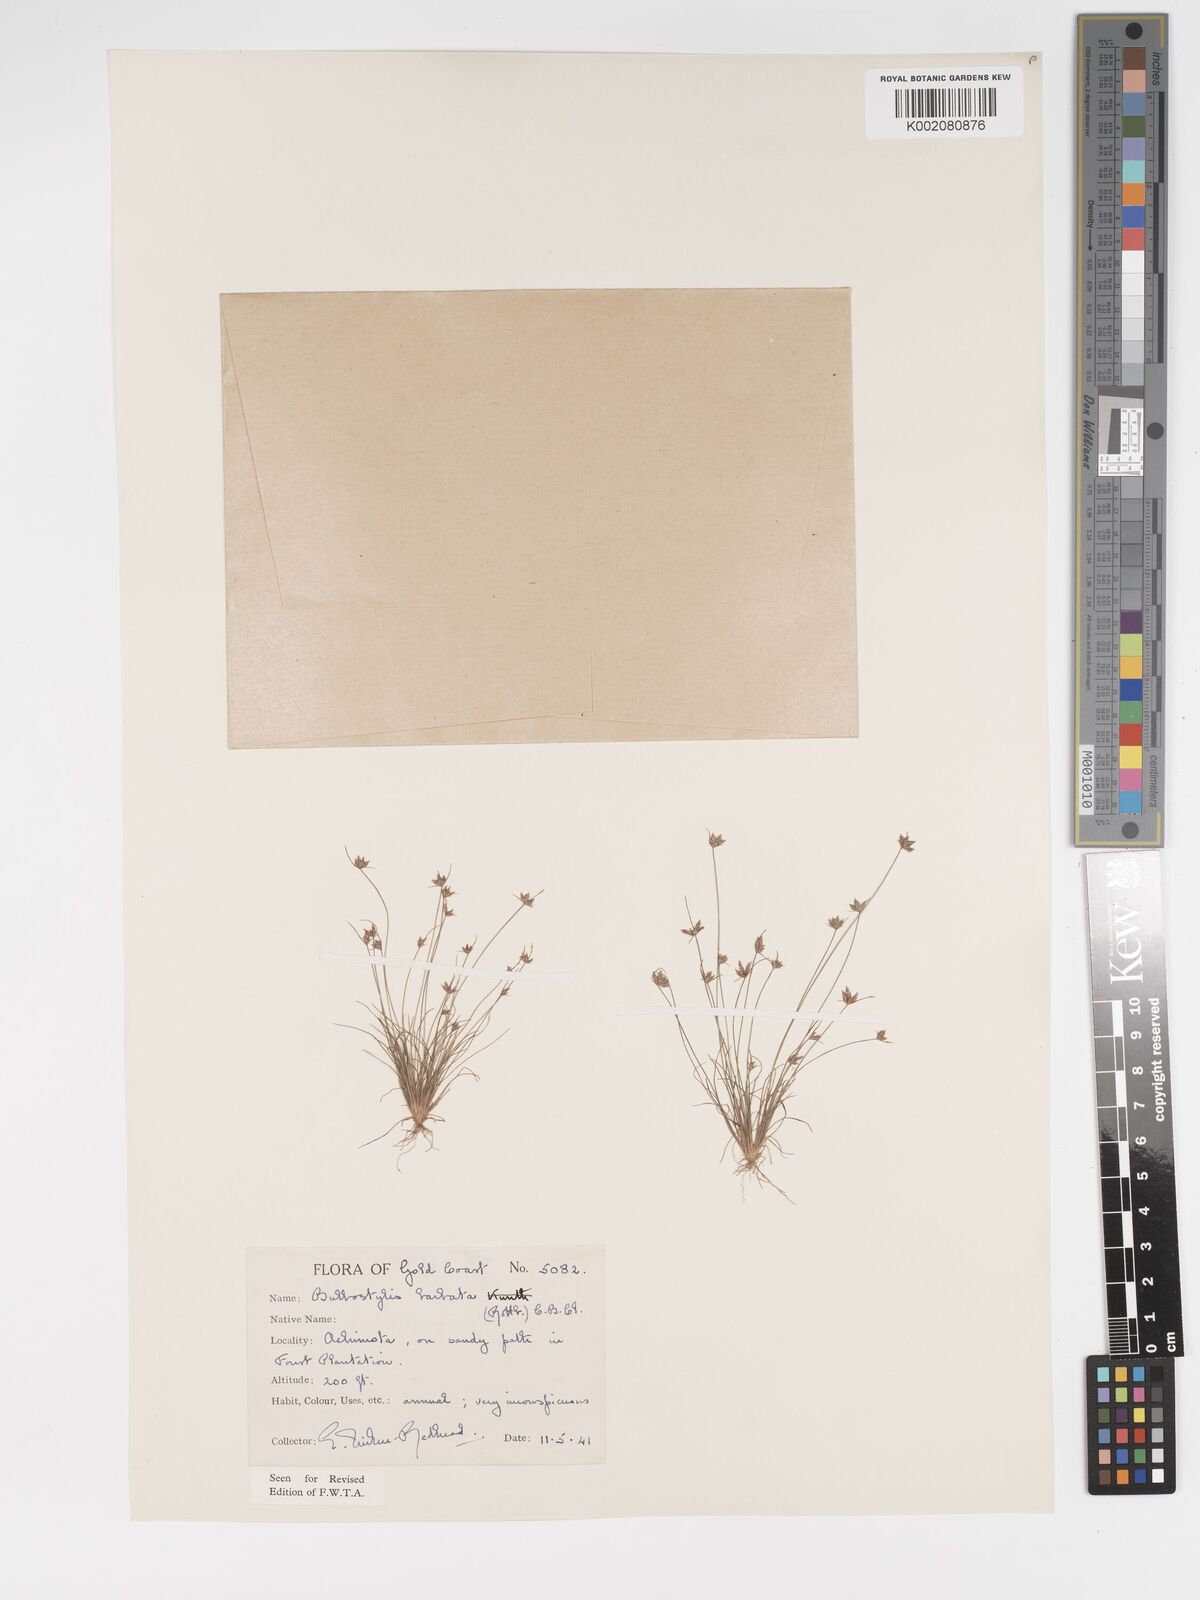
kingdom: Plantae
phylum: Tracheophyta
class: Liliopsida
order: Poales
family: Cyperaceae
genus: Bulbostylis
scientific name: Bulbostylis barbata
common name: Watergrass
